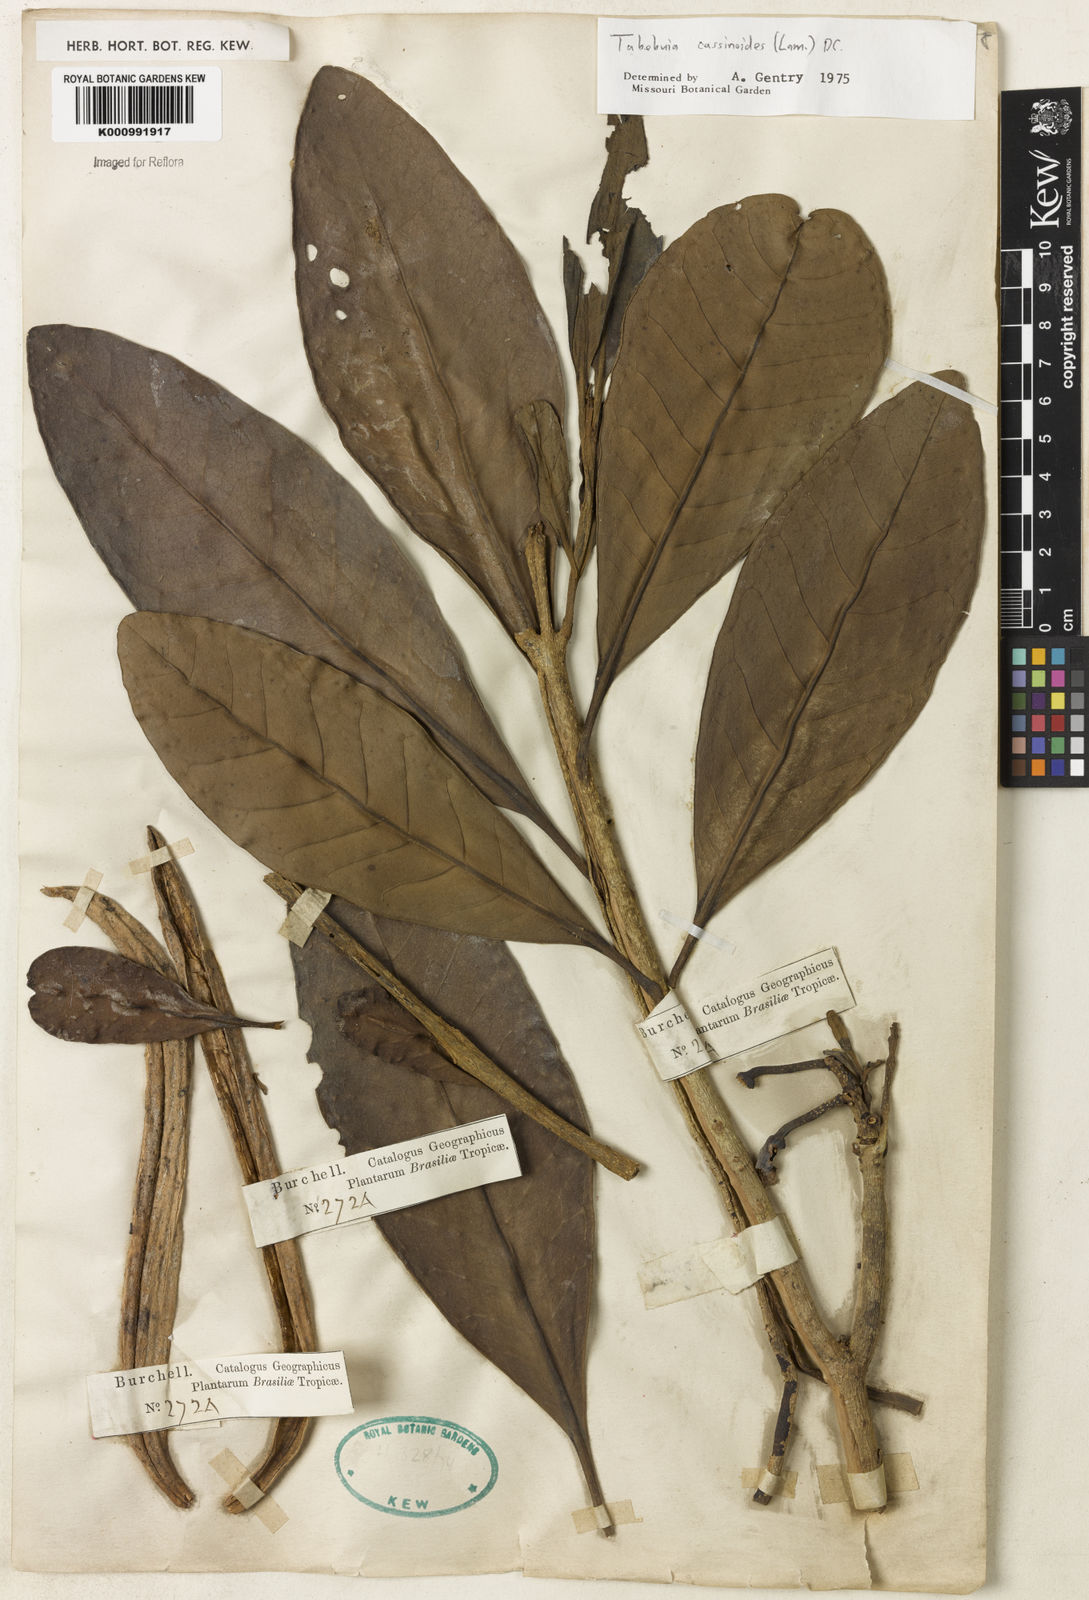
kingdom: Plantae
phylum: Tracheophyta
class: Magnoliopsida
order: Lamiales
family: Bignoniaceae
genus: Tabebuia
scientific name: Tabebuia cassinoides
